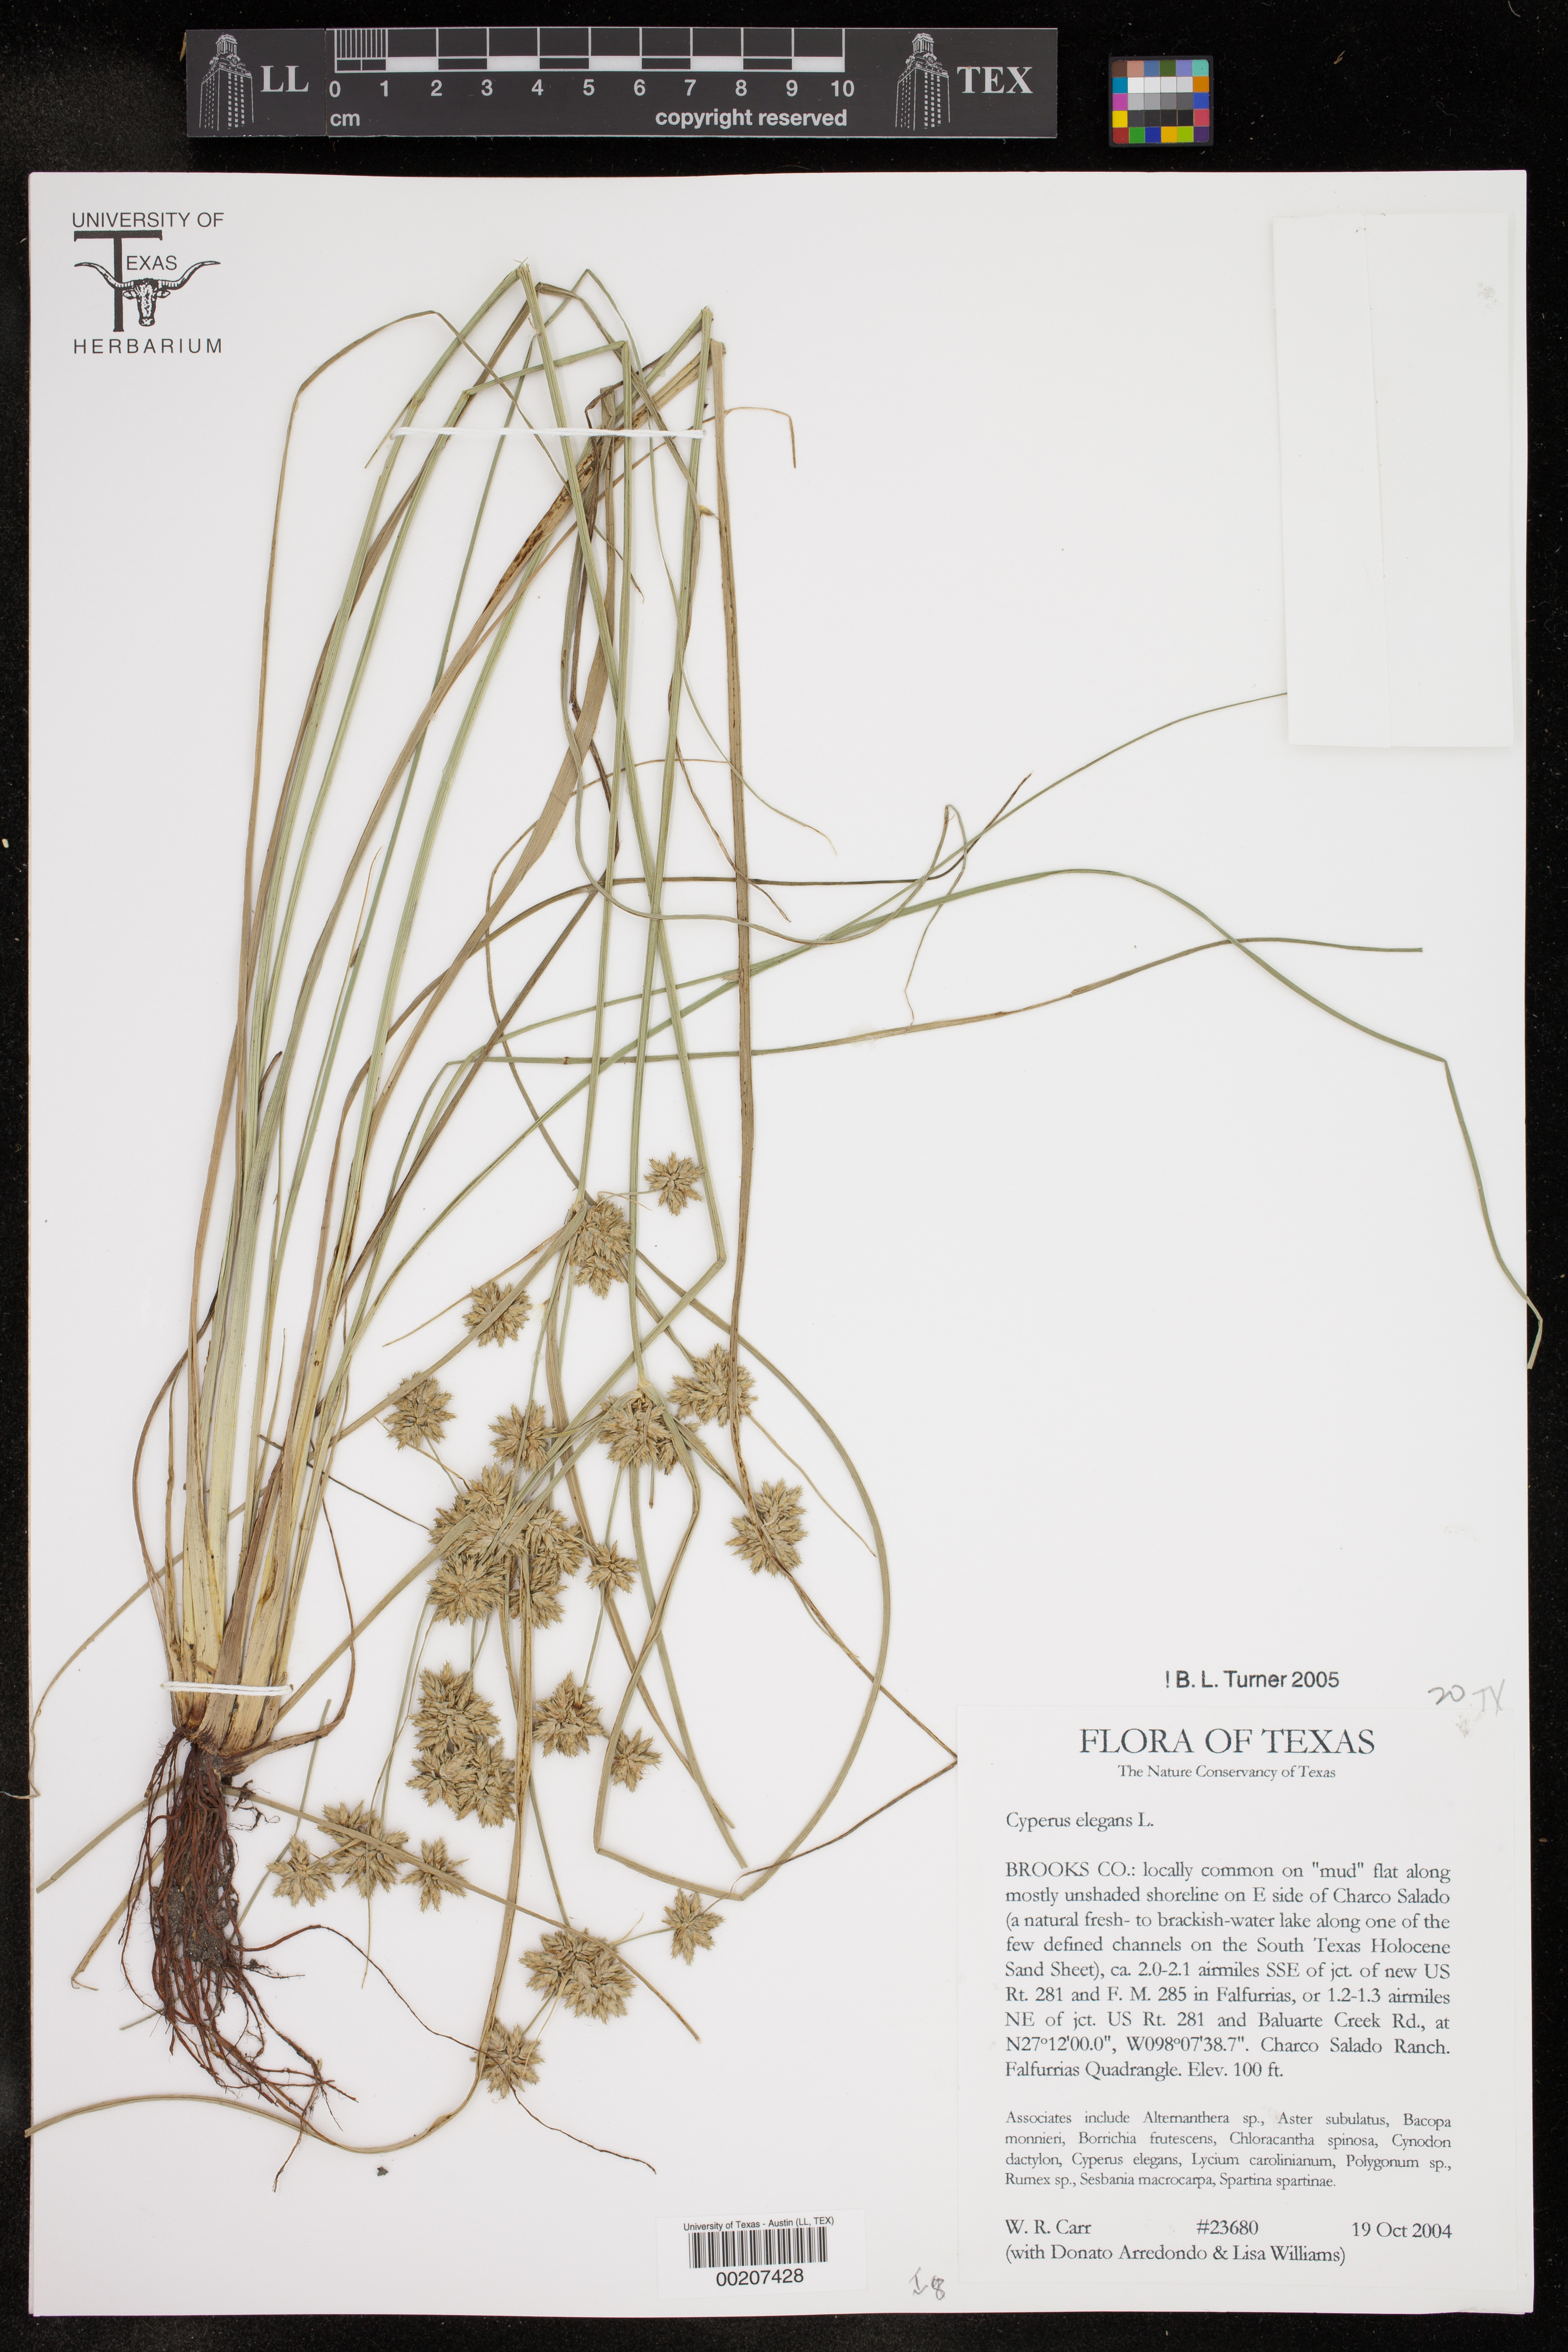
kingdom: Plantae
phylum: Tracheophyta
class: Liliopsida
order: Poales
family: Cyperaceae
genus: Cyperus
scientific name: Cyperus elegans
